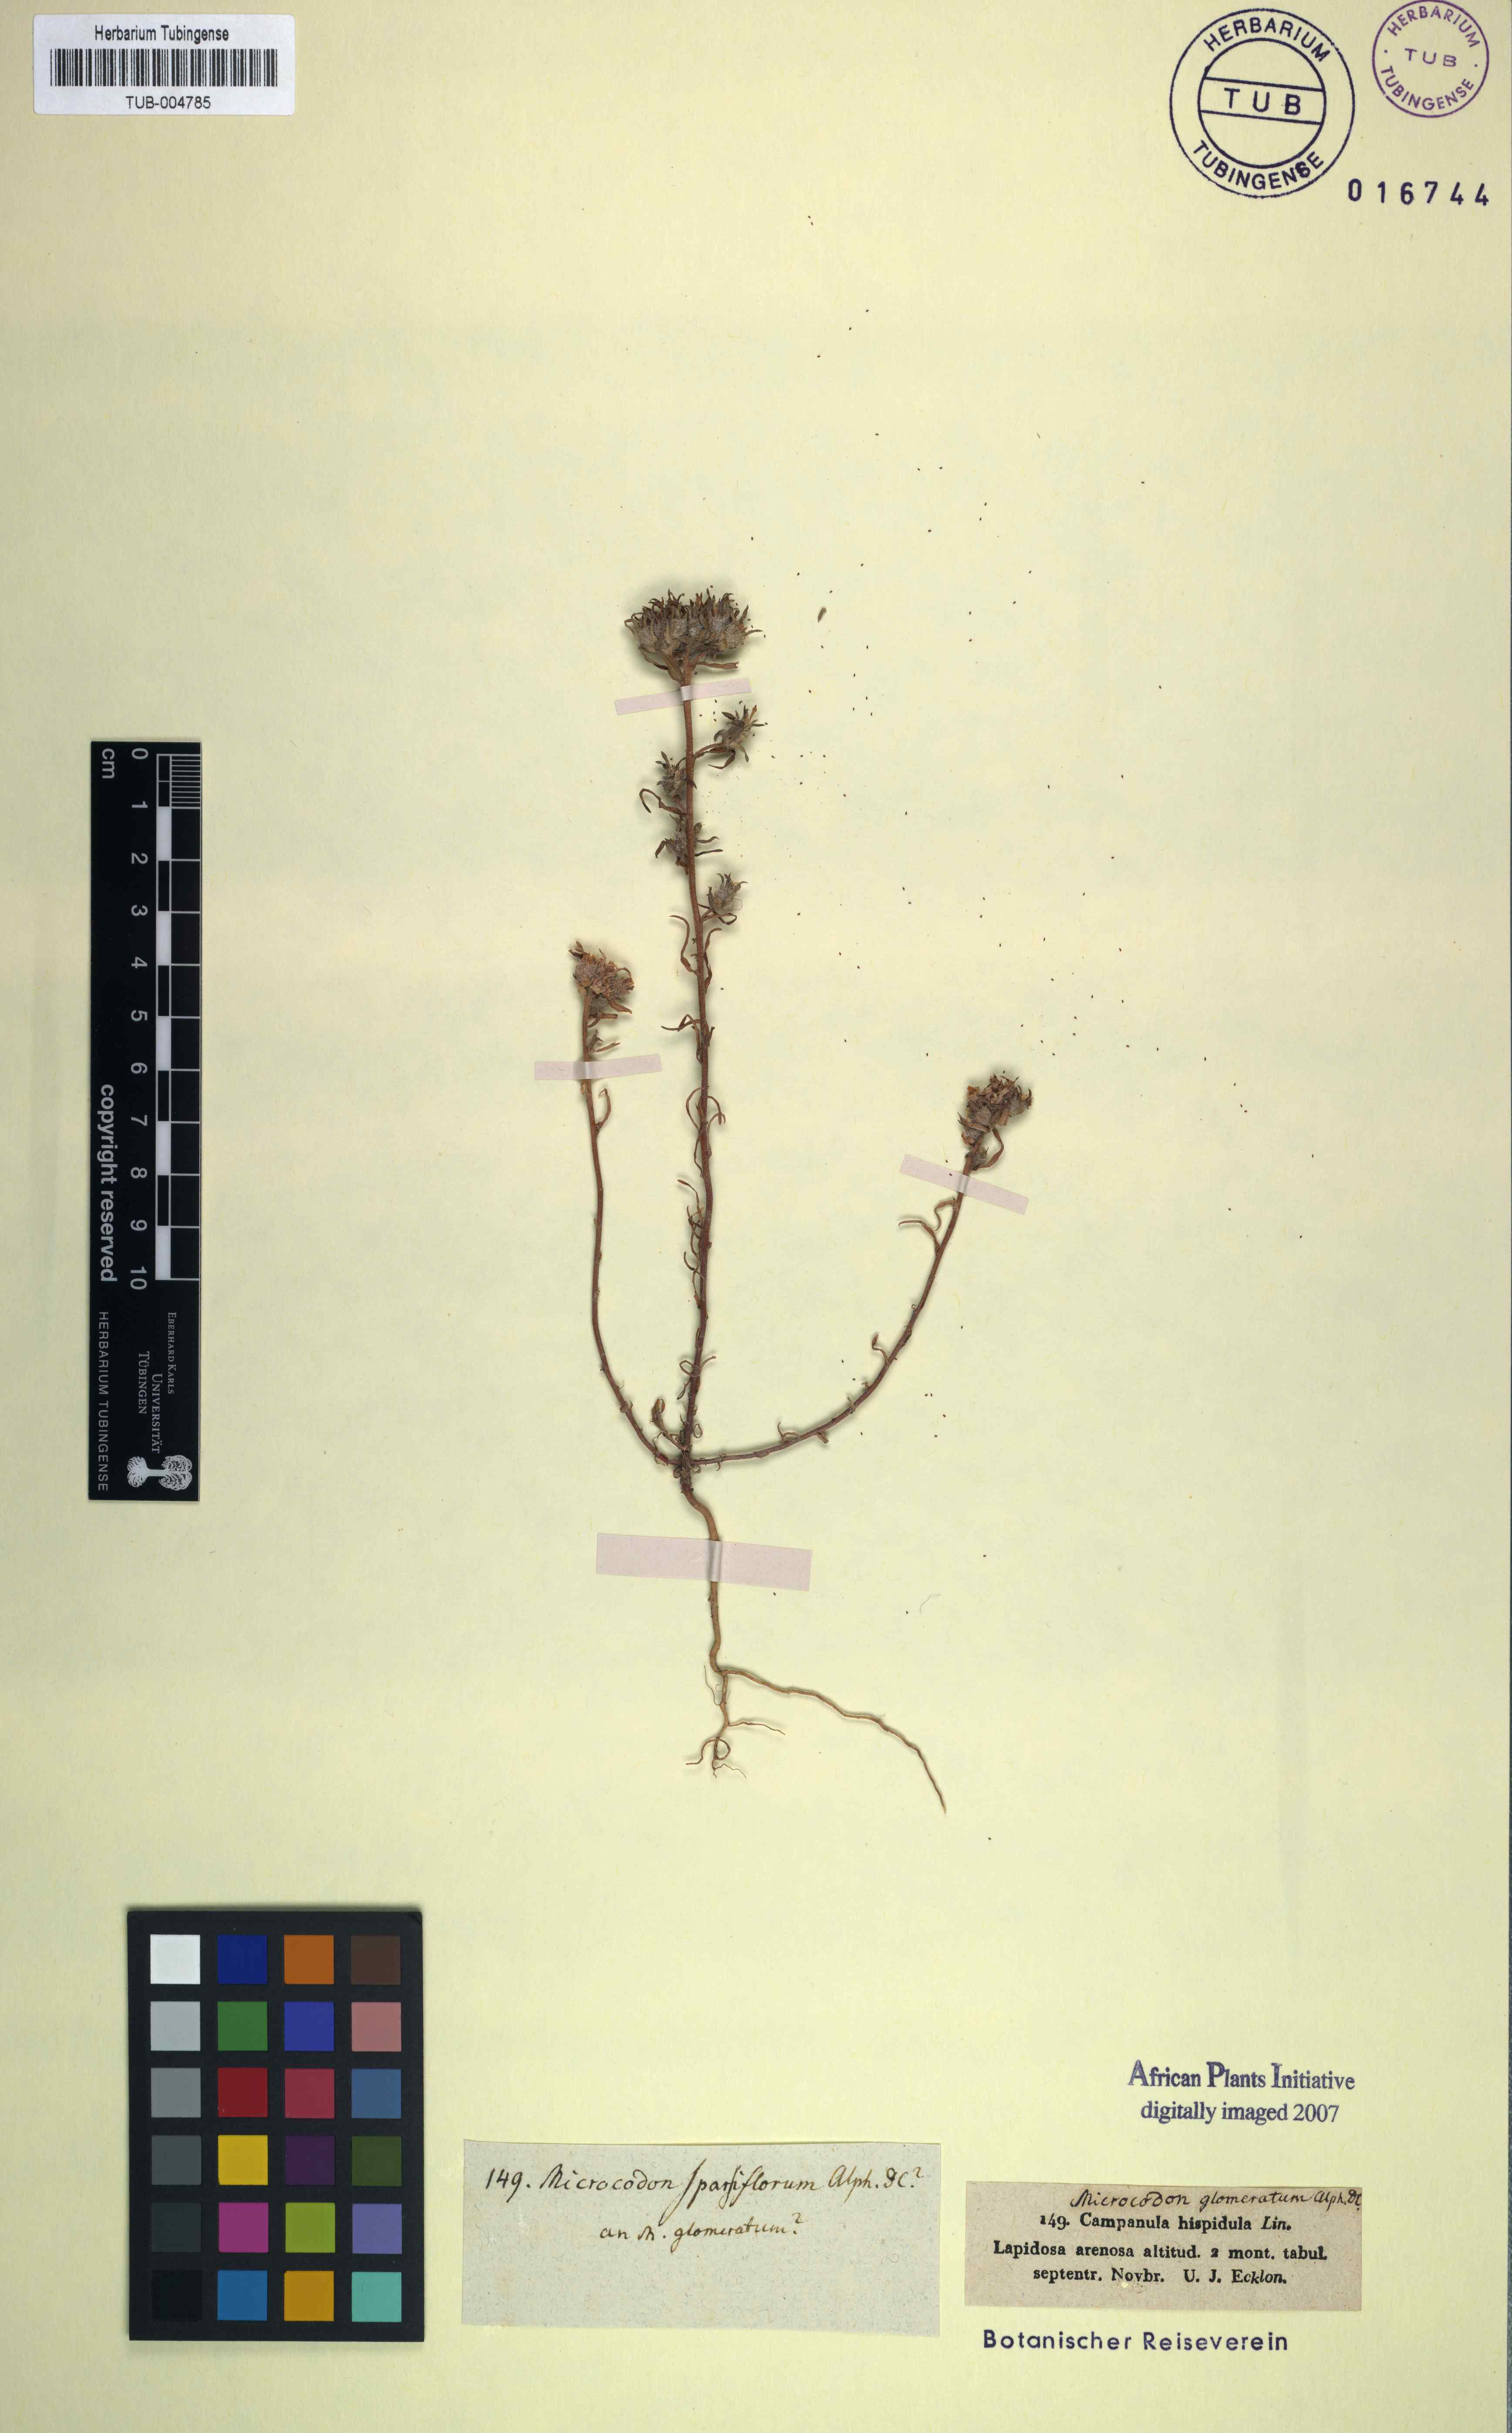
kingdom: Plantae
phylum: Tracheophyta
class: Magnoliopsida
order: Asterales
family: Campanulaceae
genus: Microcodon
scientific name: Microcodon
